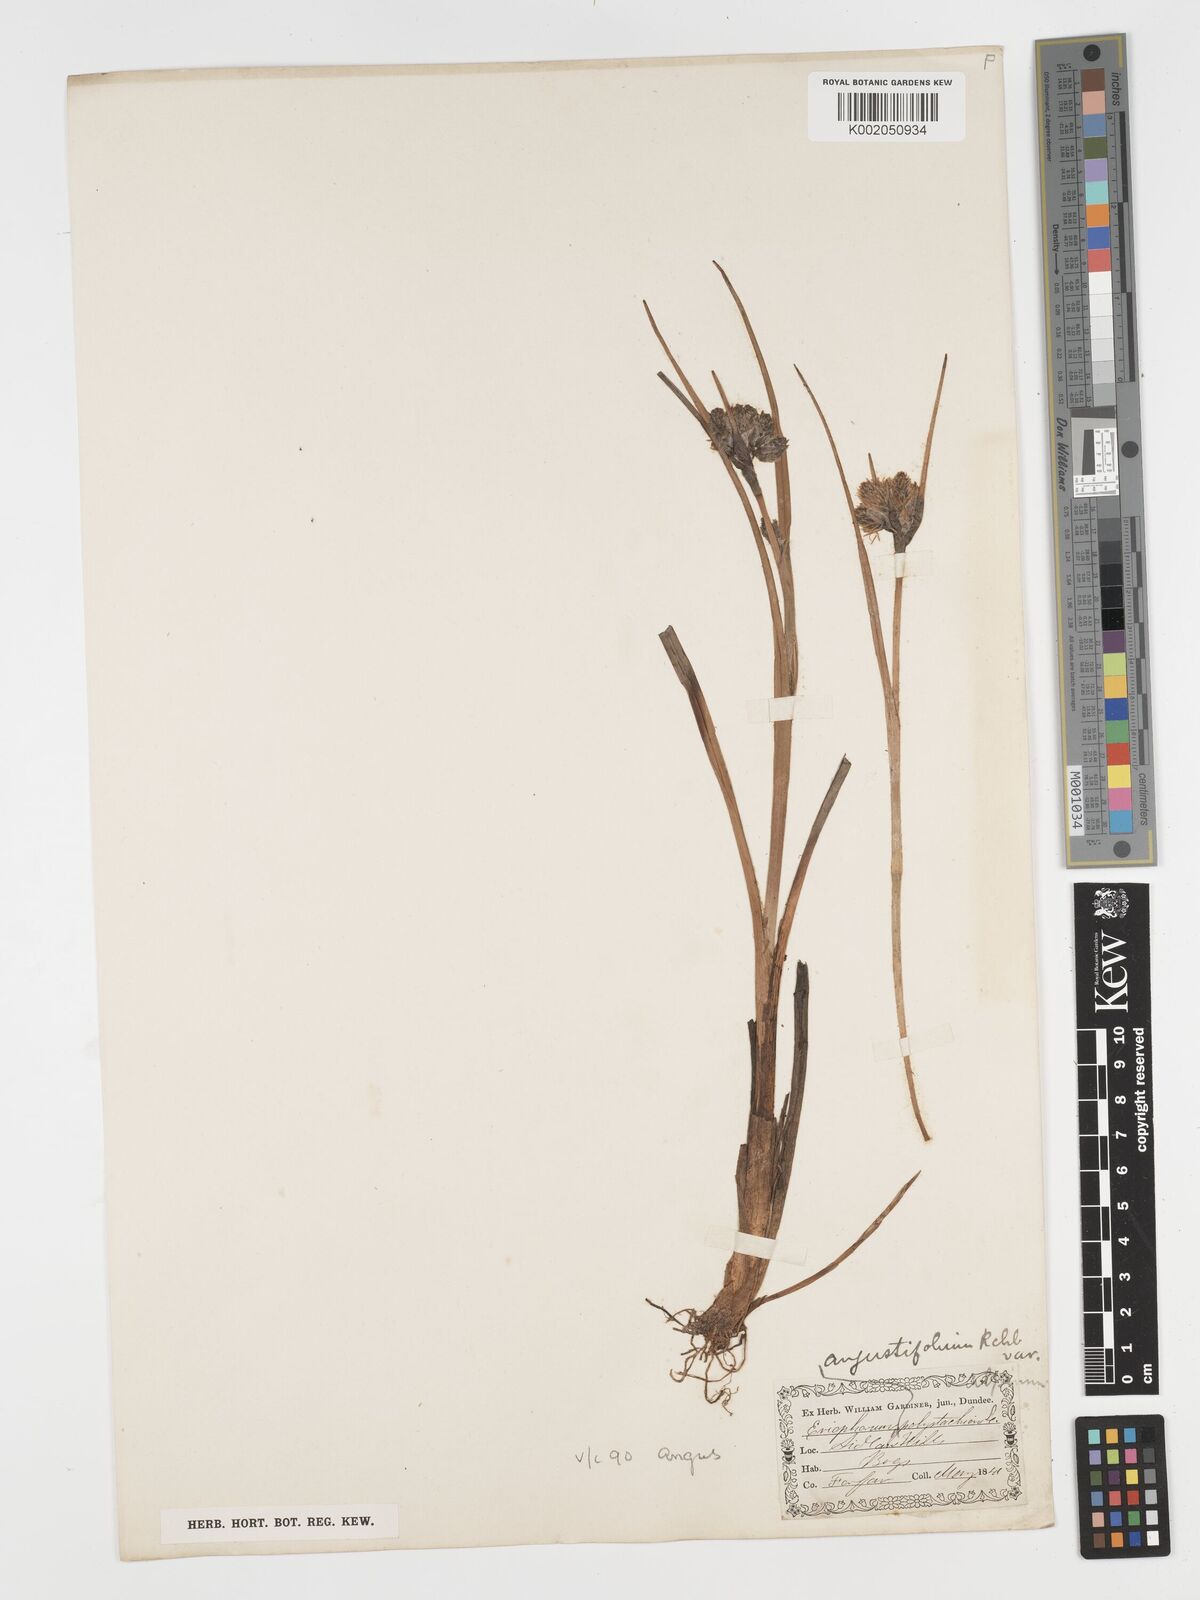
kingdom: Plantae
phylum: Tracheophyta
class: Liliopsida
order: Poales
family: Cyperaceae
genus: Eriophorum
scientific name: Eriophorum angustifolium
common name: Common cottongrass
